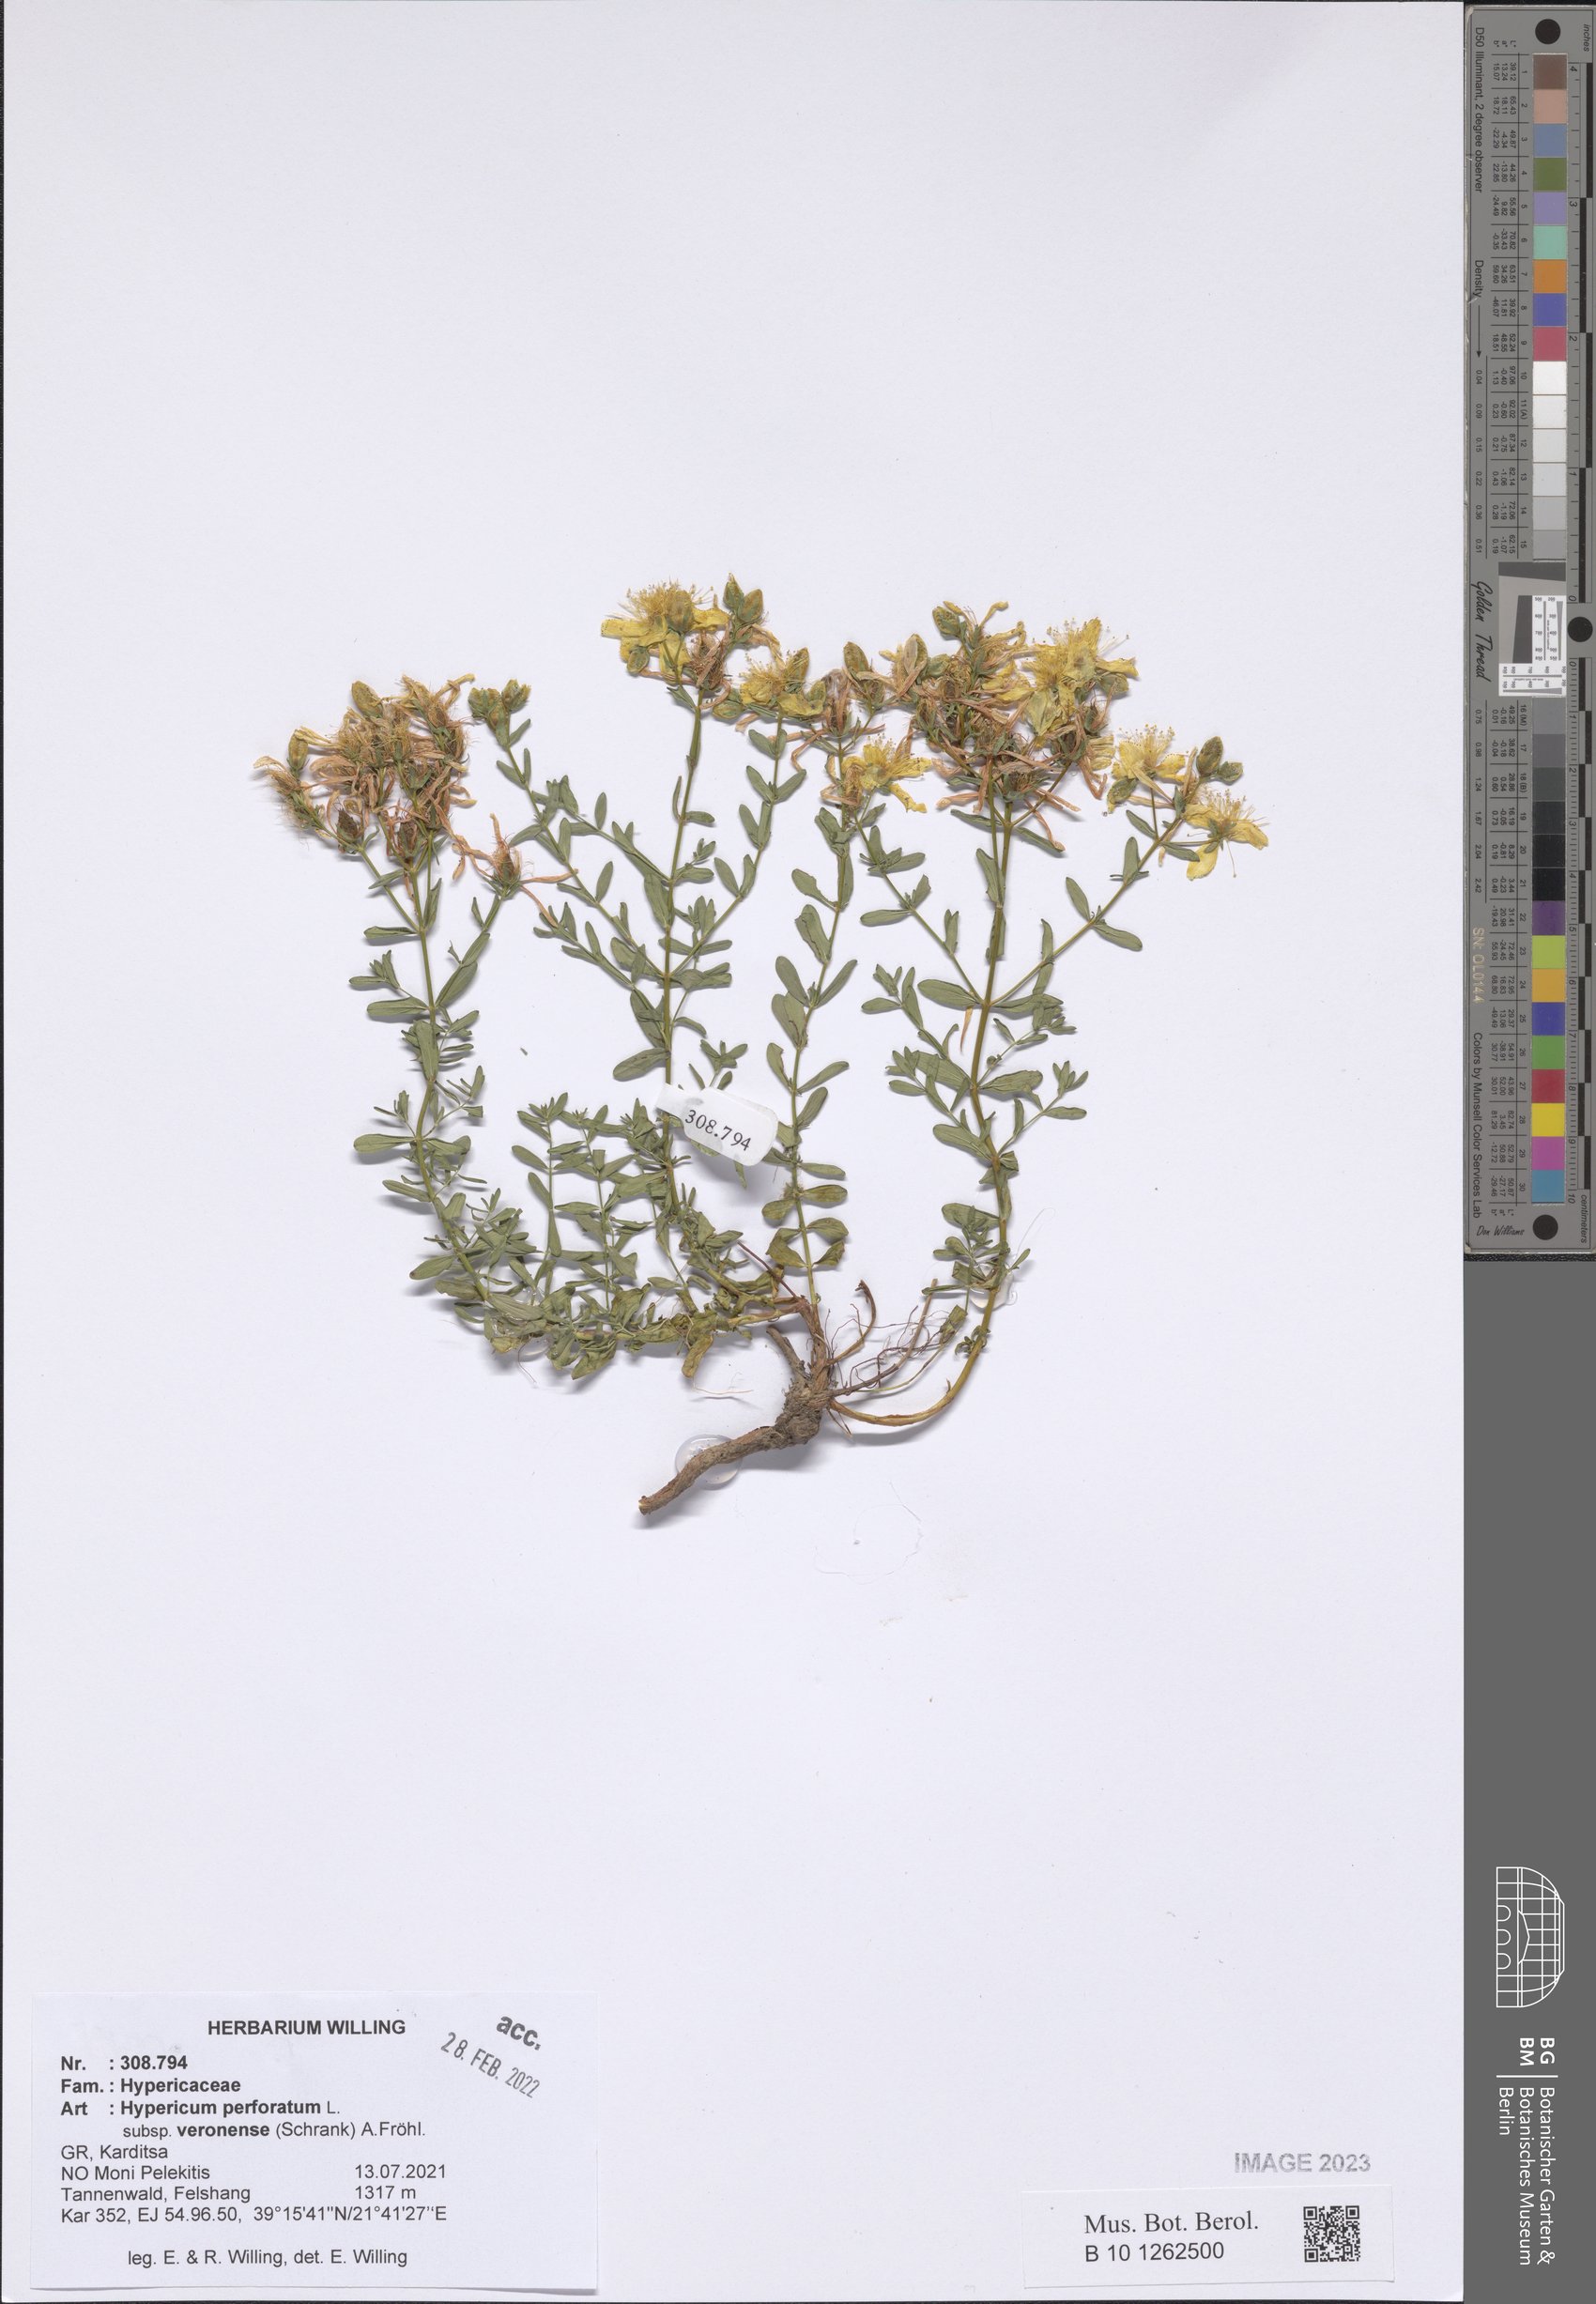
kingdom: Plantae
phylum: Tracheophyta
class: Magnoliopsida
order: Malpighiales
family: Hypericaceae
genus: Hypericum
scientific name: Hypericum veronense
